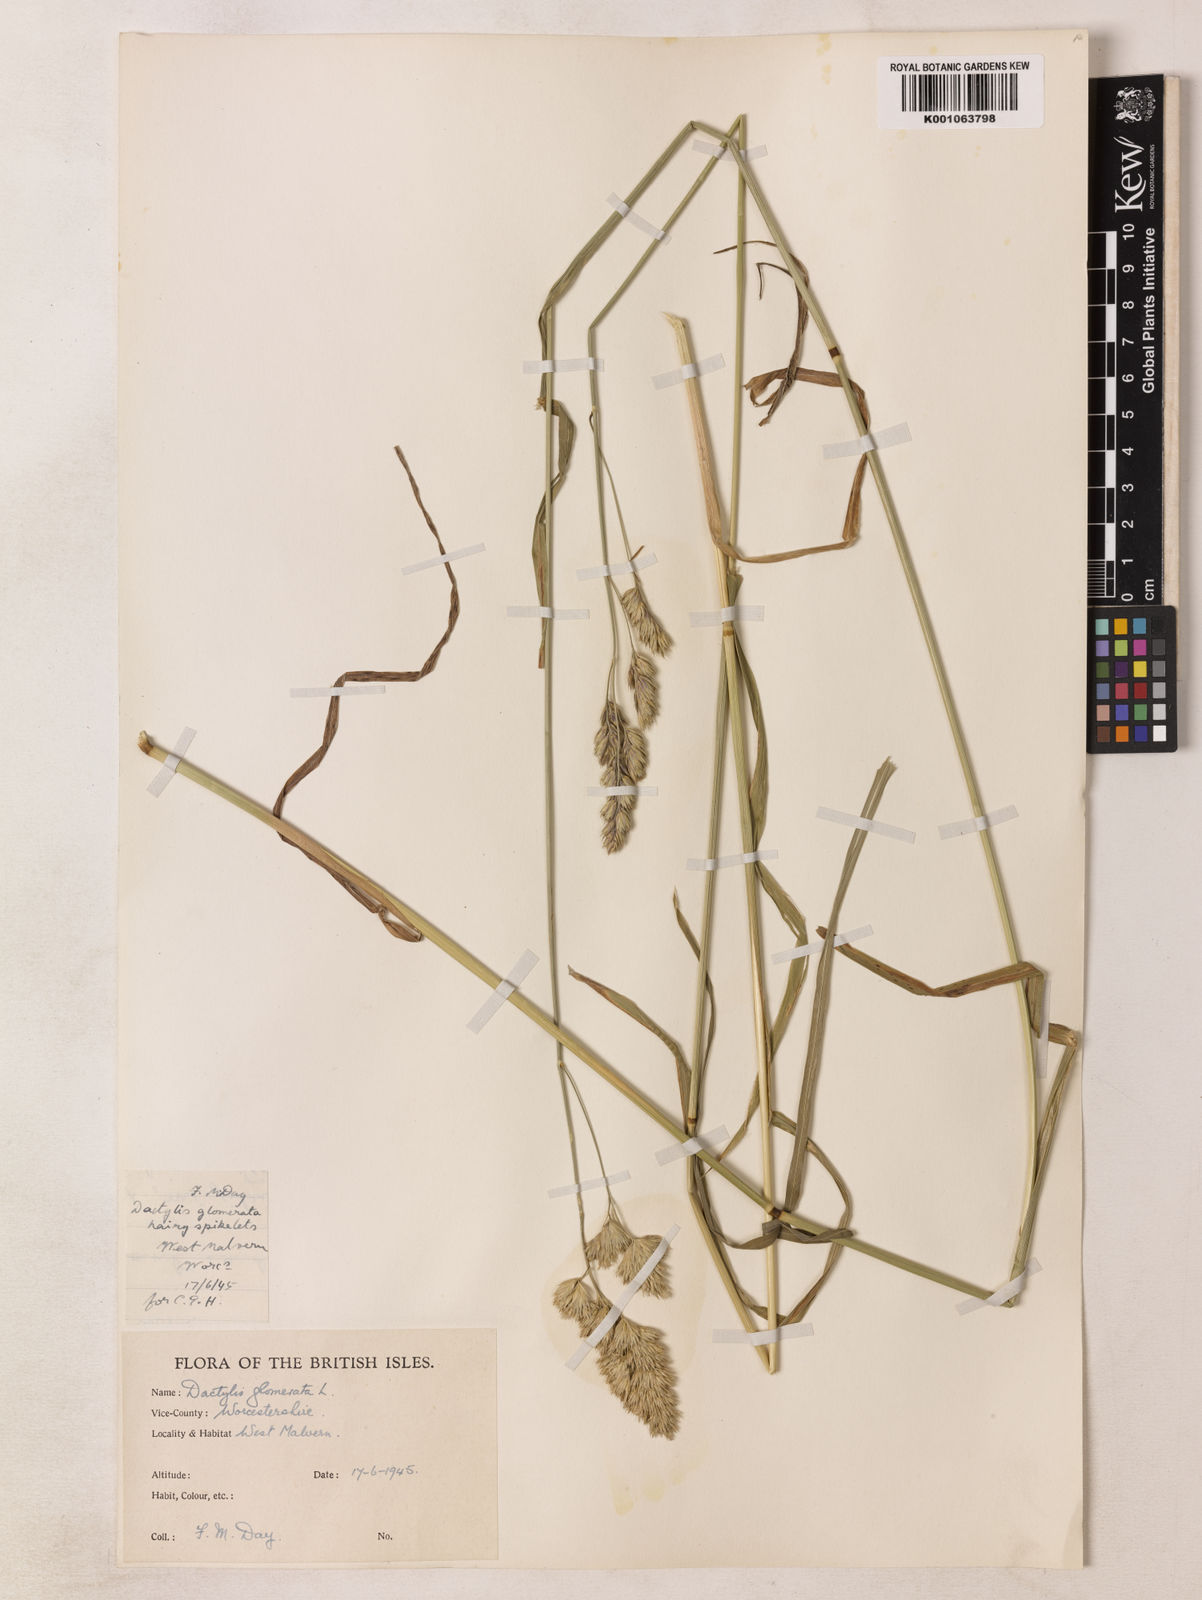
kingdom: Plantae
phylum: Tracheophyta
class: Liliopsida
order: Poales
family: Poaceae
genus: Dactylis
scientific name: Dactylis glomerata
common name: Orchardgrass
